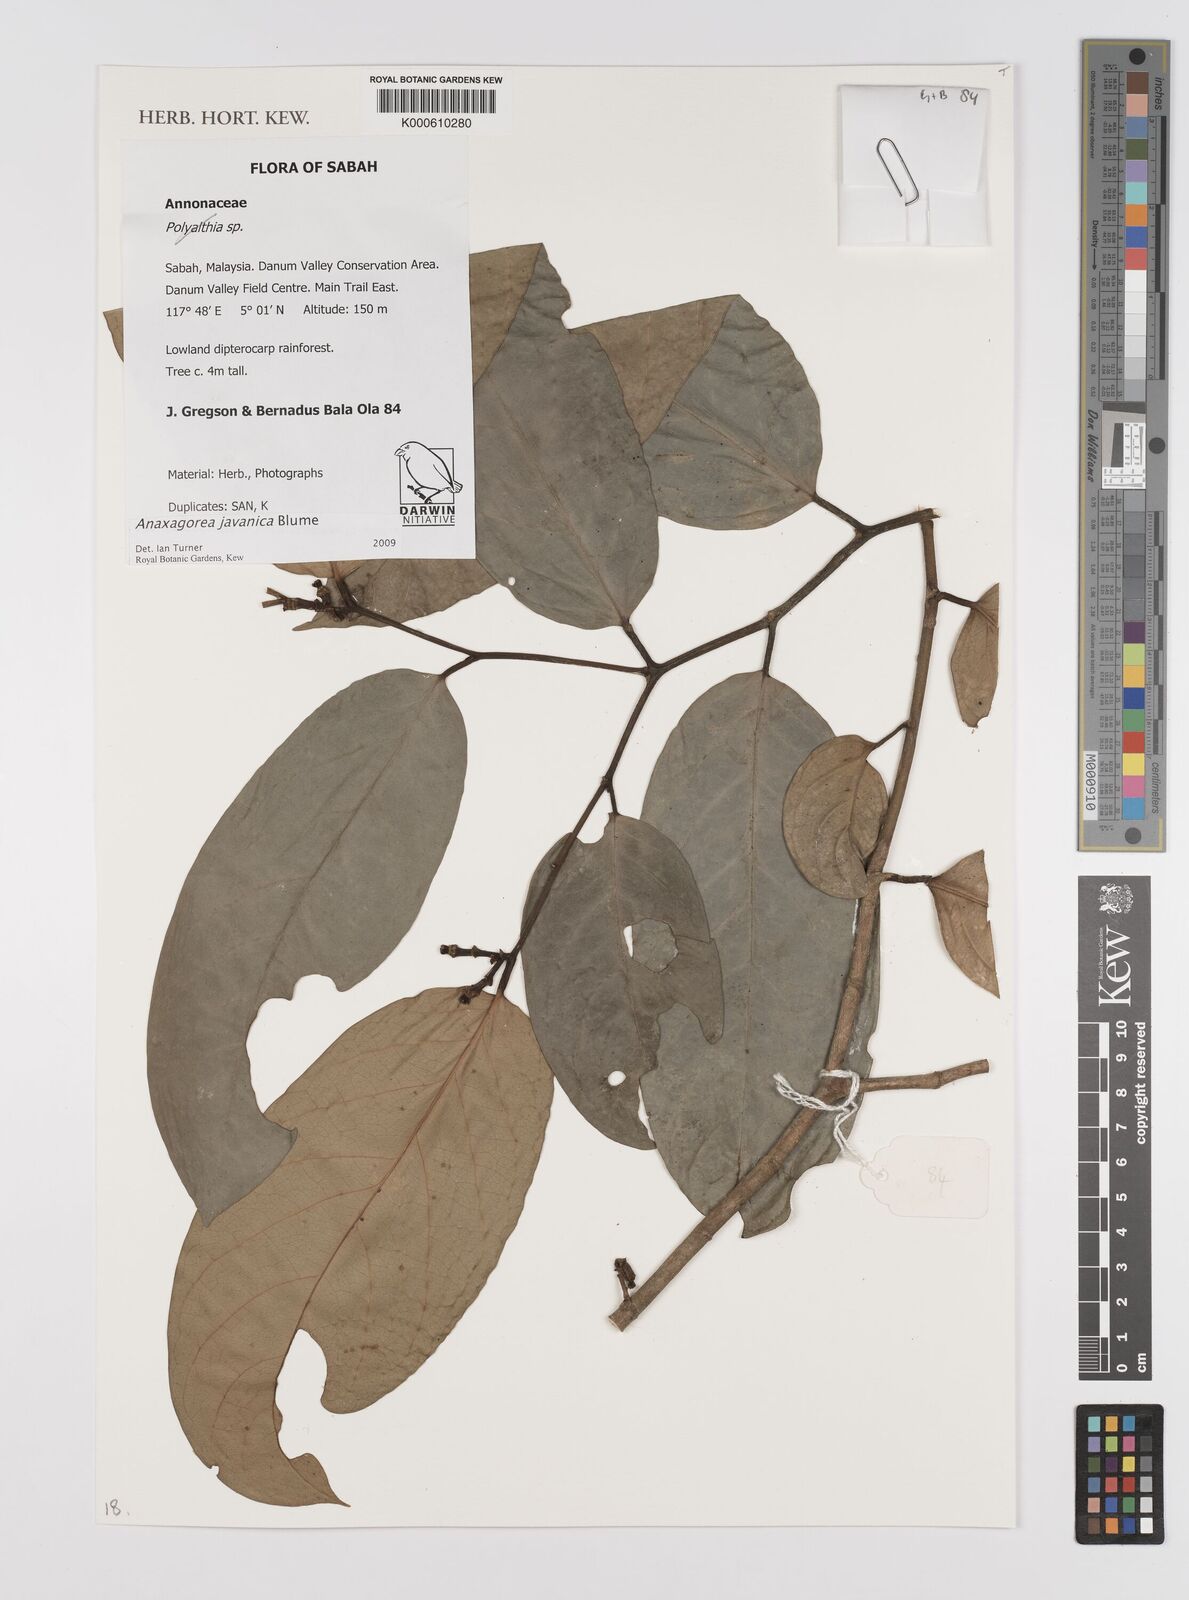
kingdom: Plantae
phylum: Tracheophyta
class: Magnoliopsida
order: Magnoliales
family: Annonaceae
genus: Anaxagorea
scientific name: Anaxagorea javanica
